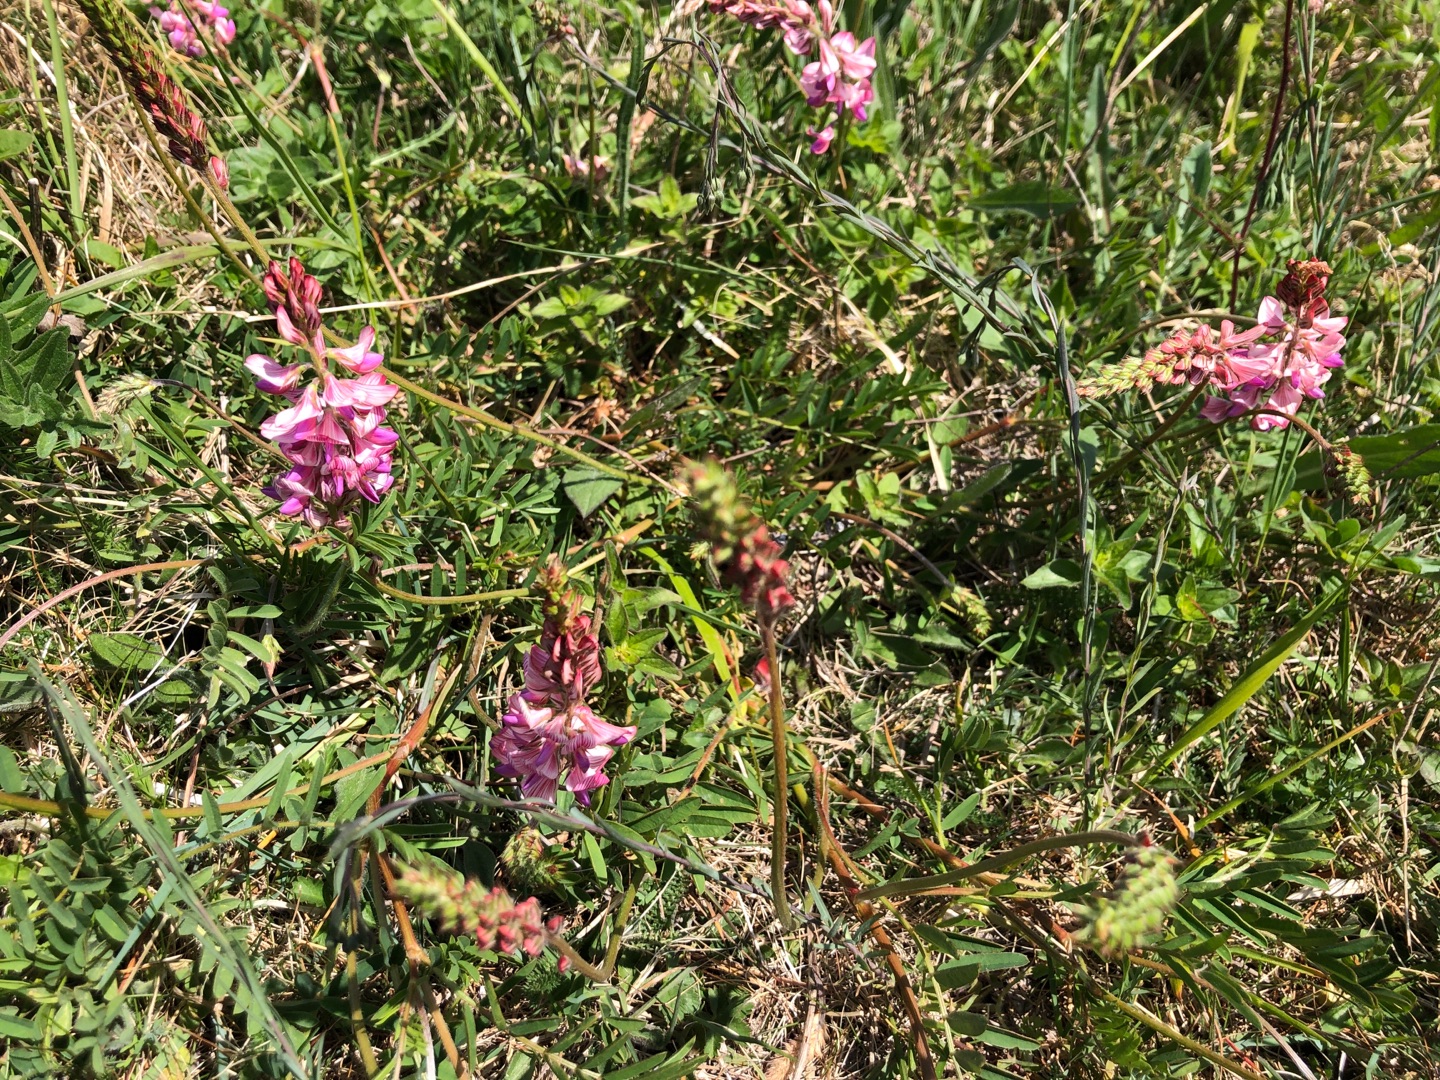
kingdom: Plantae
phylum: Tracheophyta
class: Magnoliopsida
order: Fabales
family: Fabaceae
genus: Onobrychis
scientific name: Onobrychis viciifolia
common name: Esparsette
